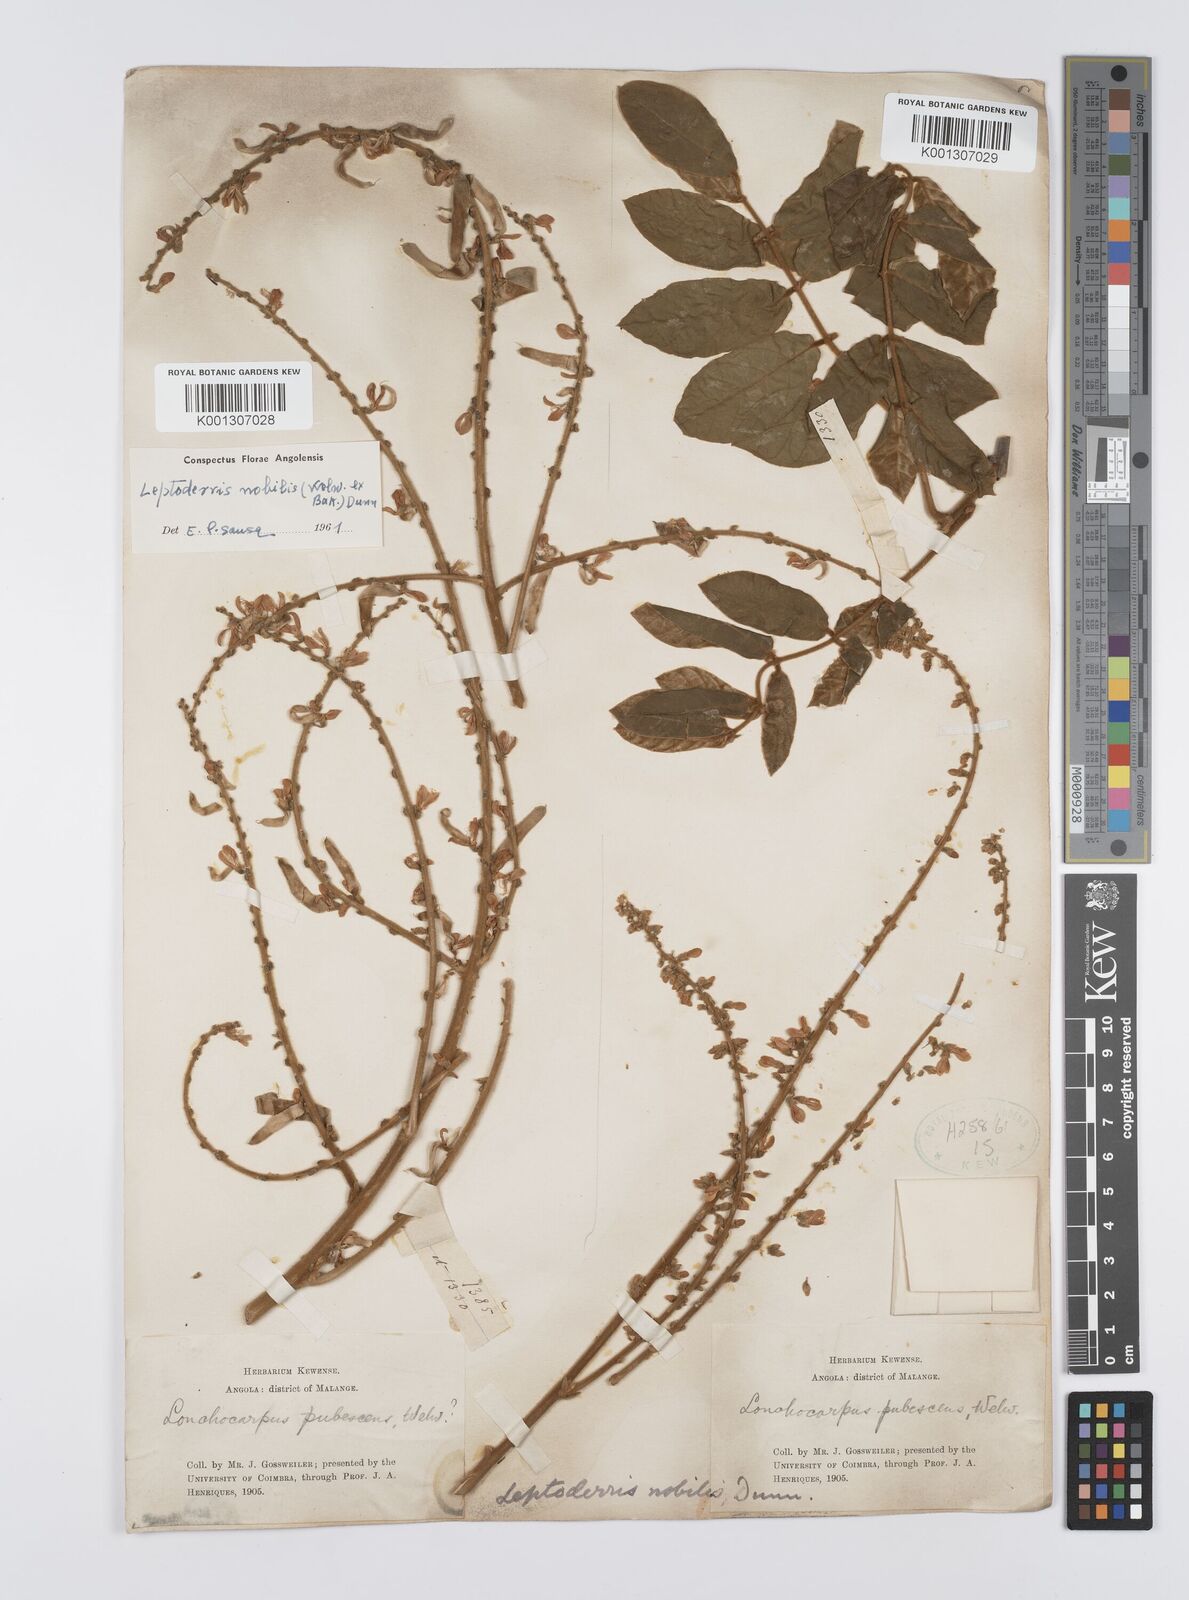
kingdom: Plantae
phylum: Tracheophyta
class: Magnoliopsida
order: Fabales
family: Fabaceae
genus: Leptoderris
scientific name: Leptoderris nobilis
